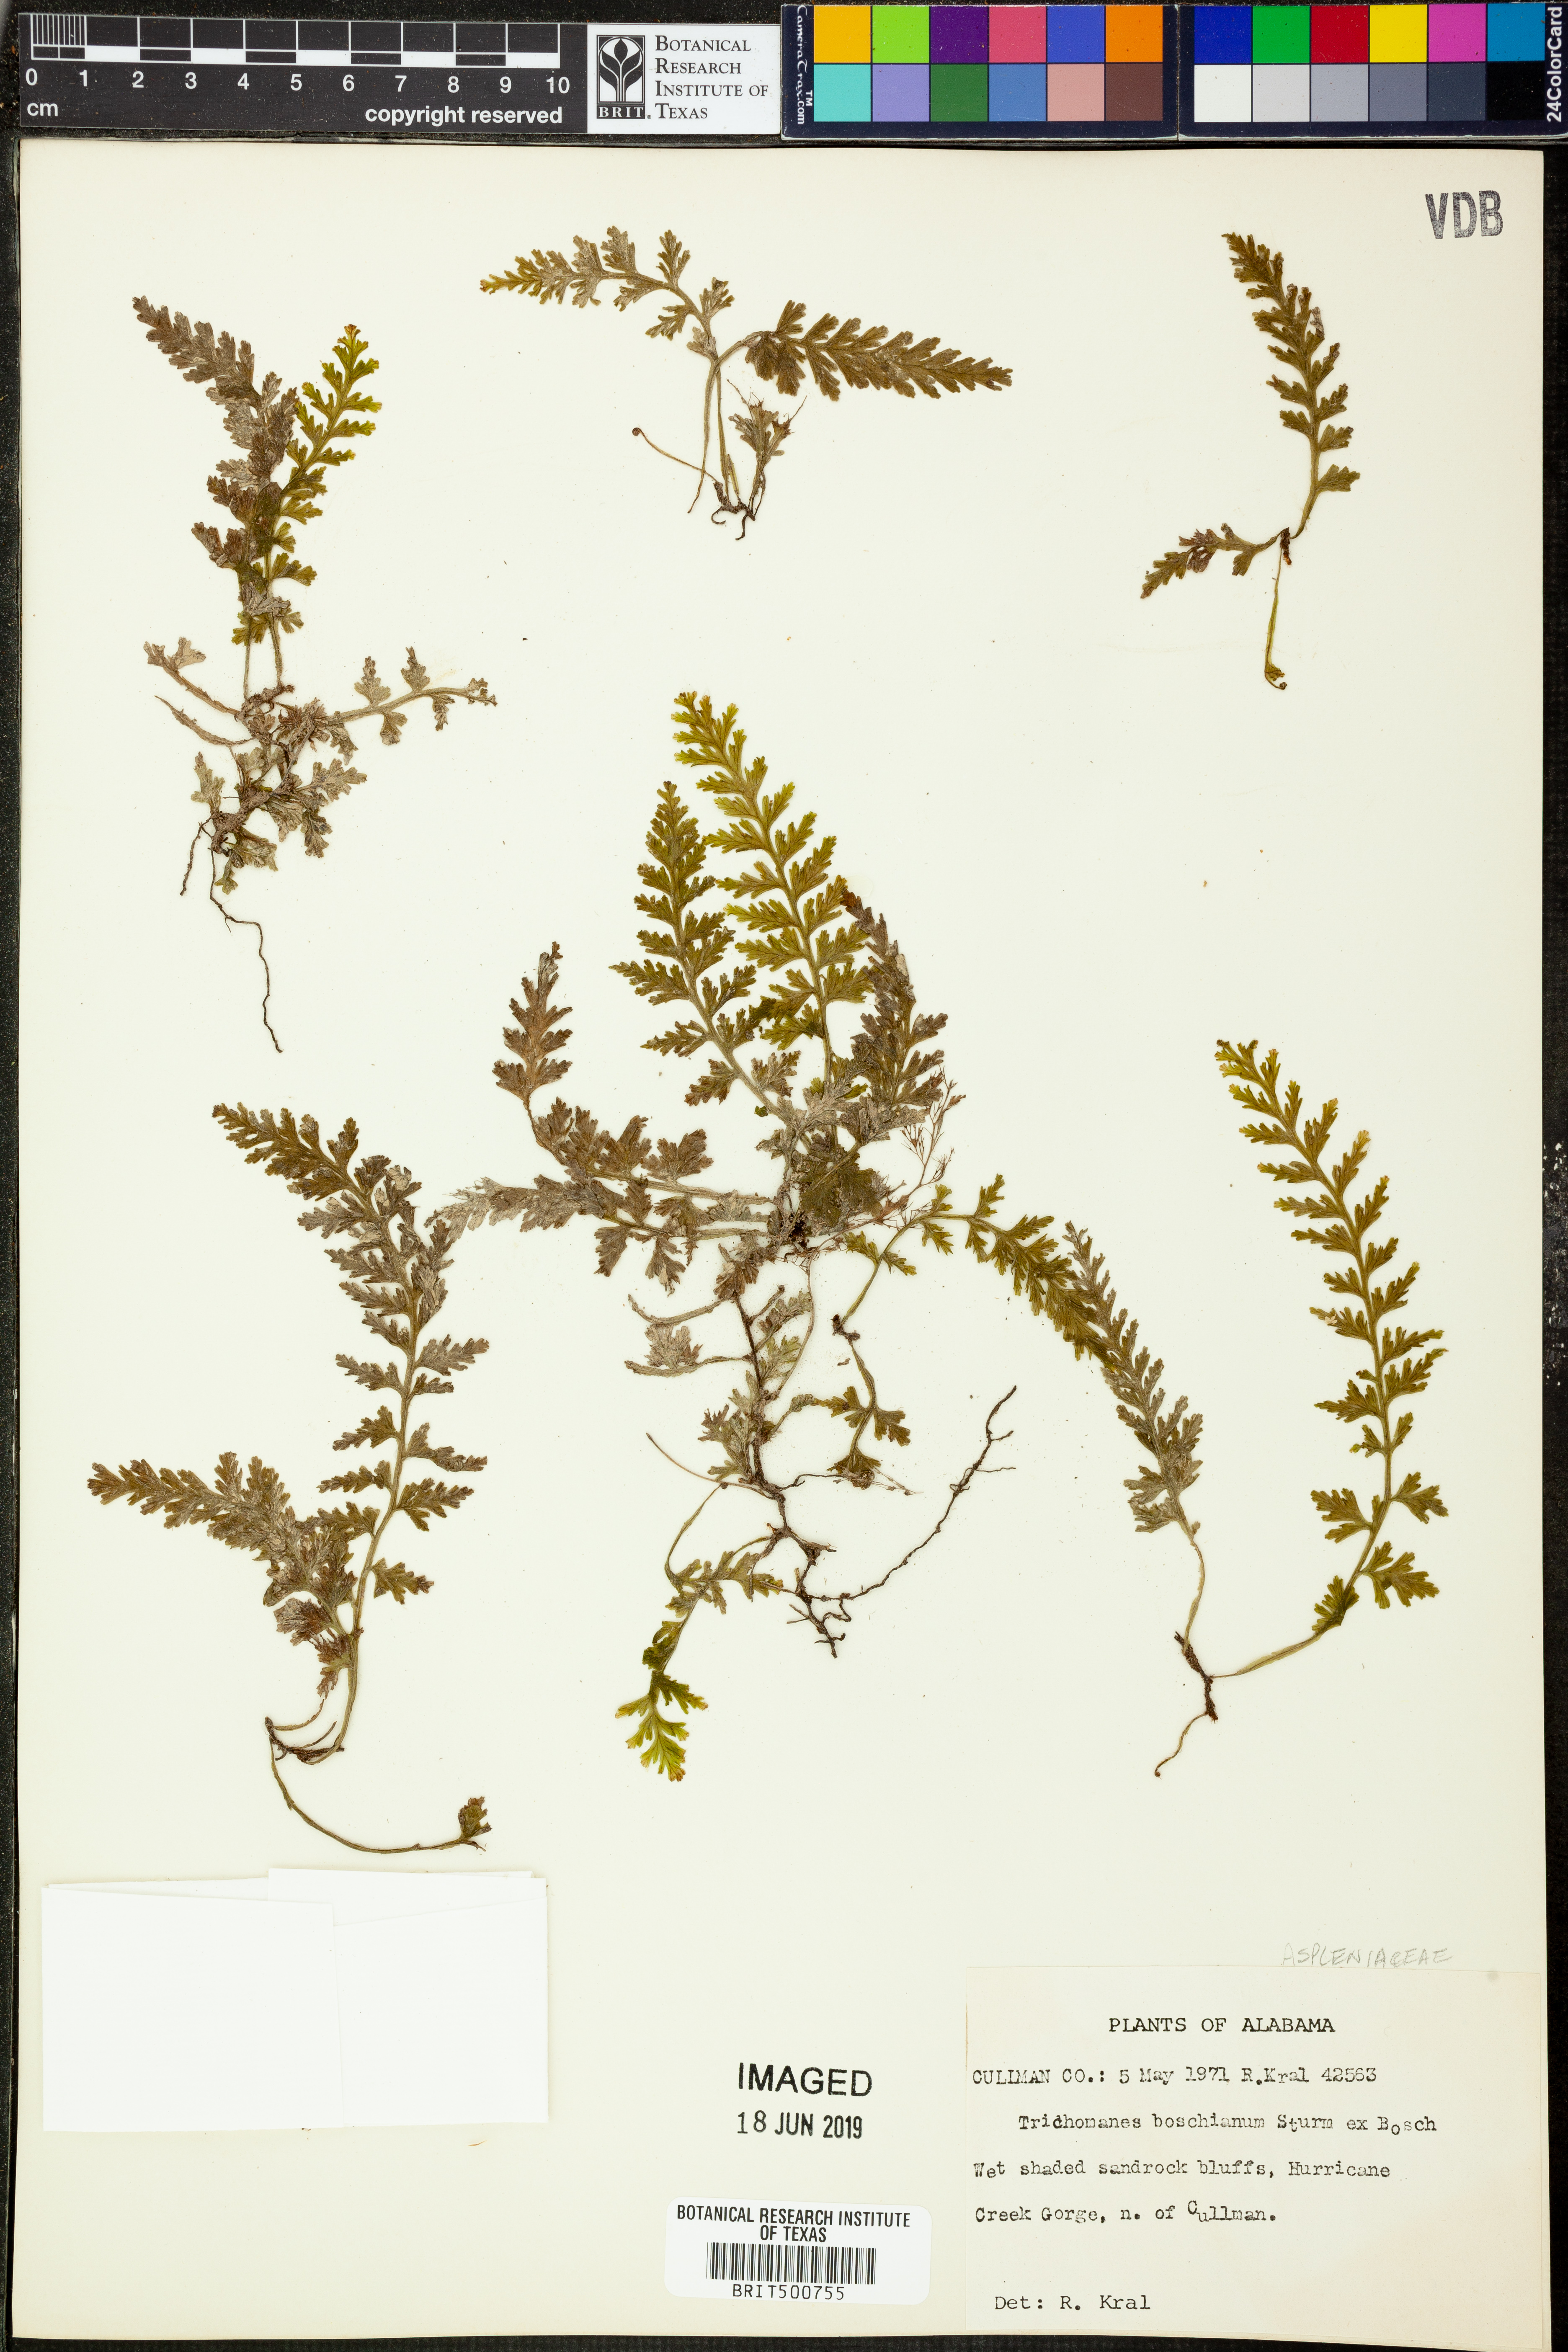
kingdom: Plantae
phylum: Tracheophyta
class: Polypodiopsida
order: Hymenophyllales
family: Hymenophyllaceae
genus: Vandenboschia
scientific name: Vandenboschia boschiana
